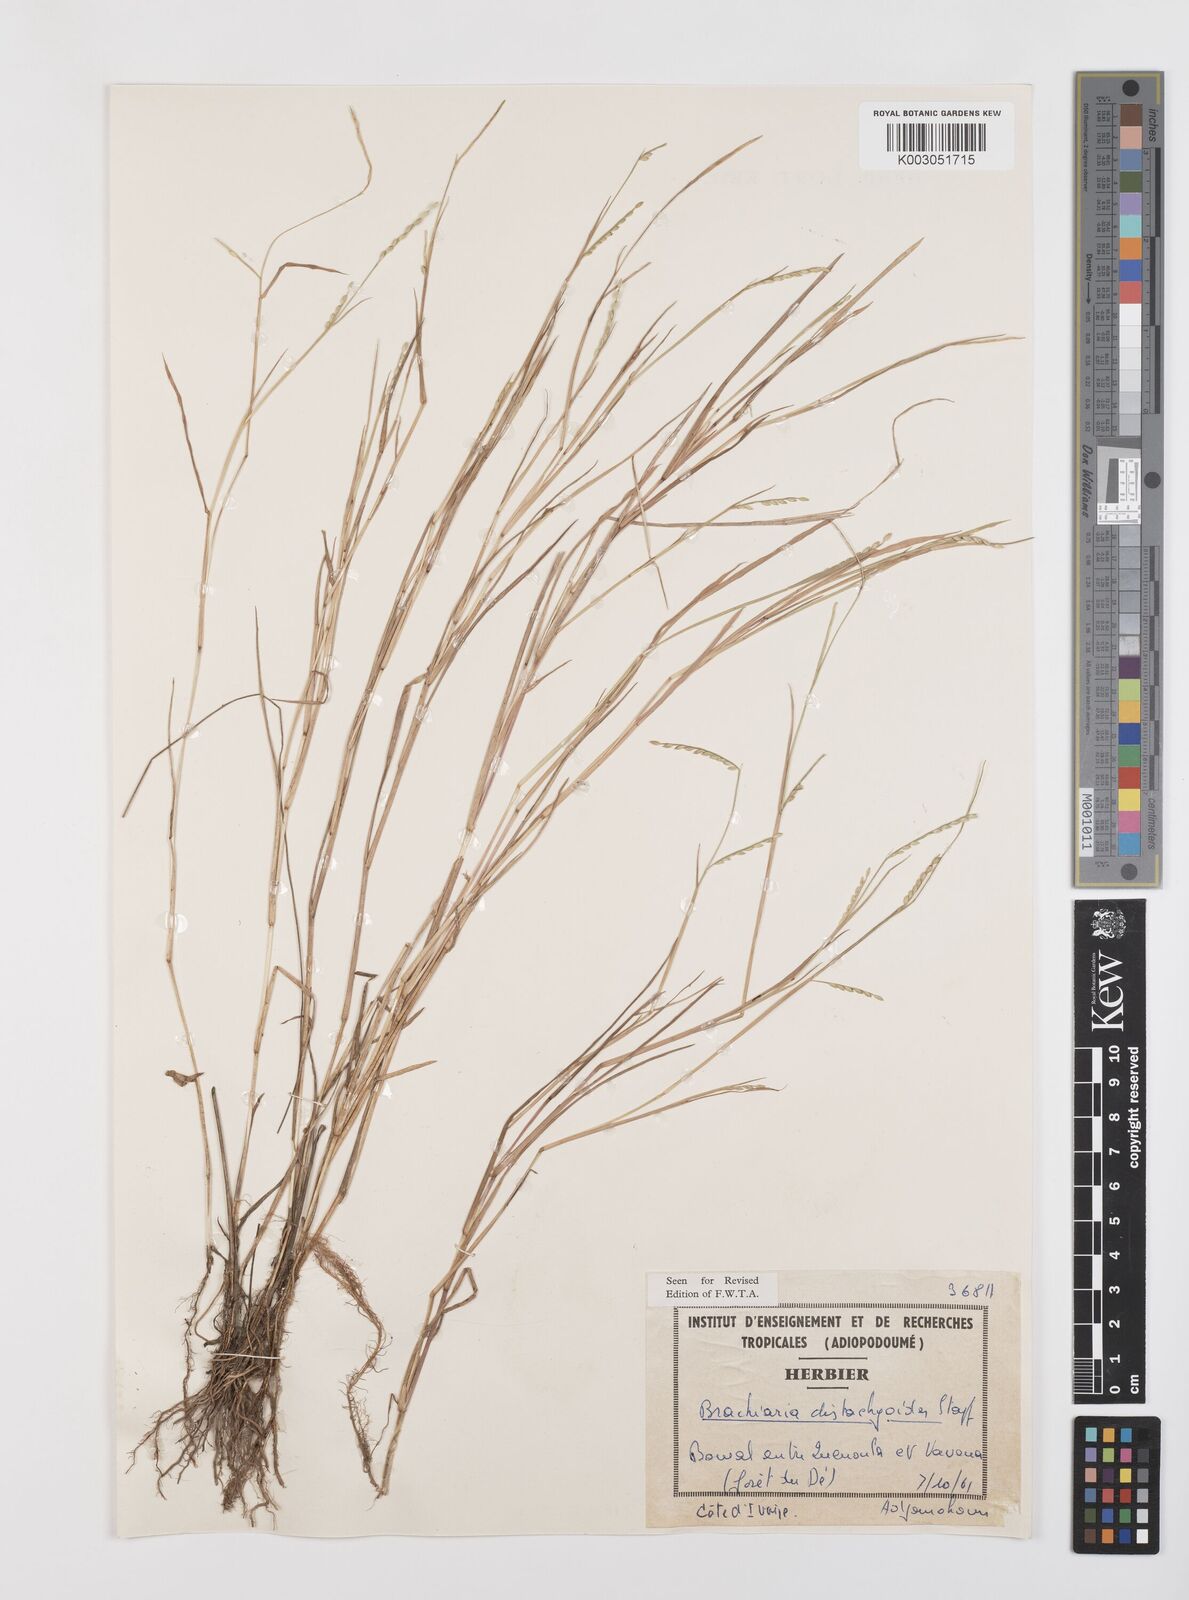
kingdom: Plantae
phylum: Tracheophyta
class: Liliopsida
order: Poales
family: Poaceae
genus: Urochloa
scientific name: Urochloa distachyoides
